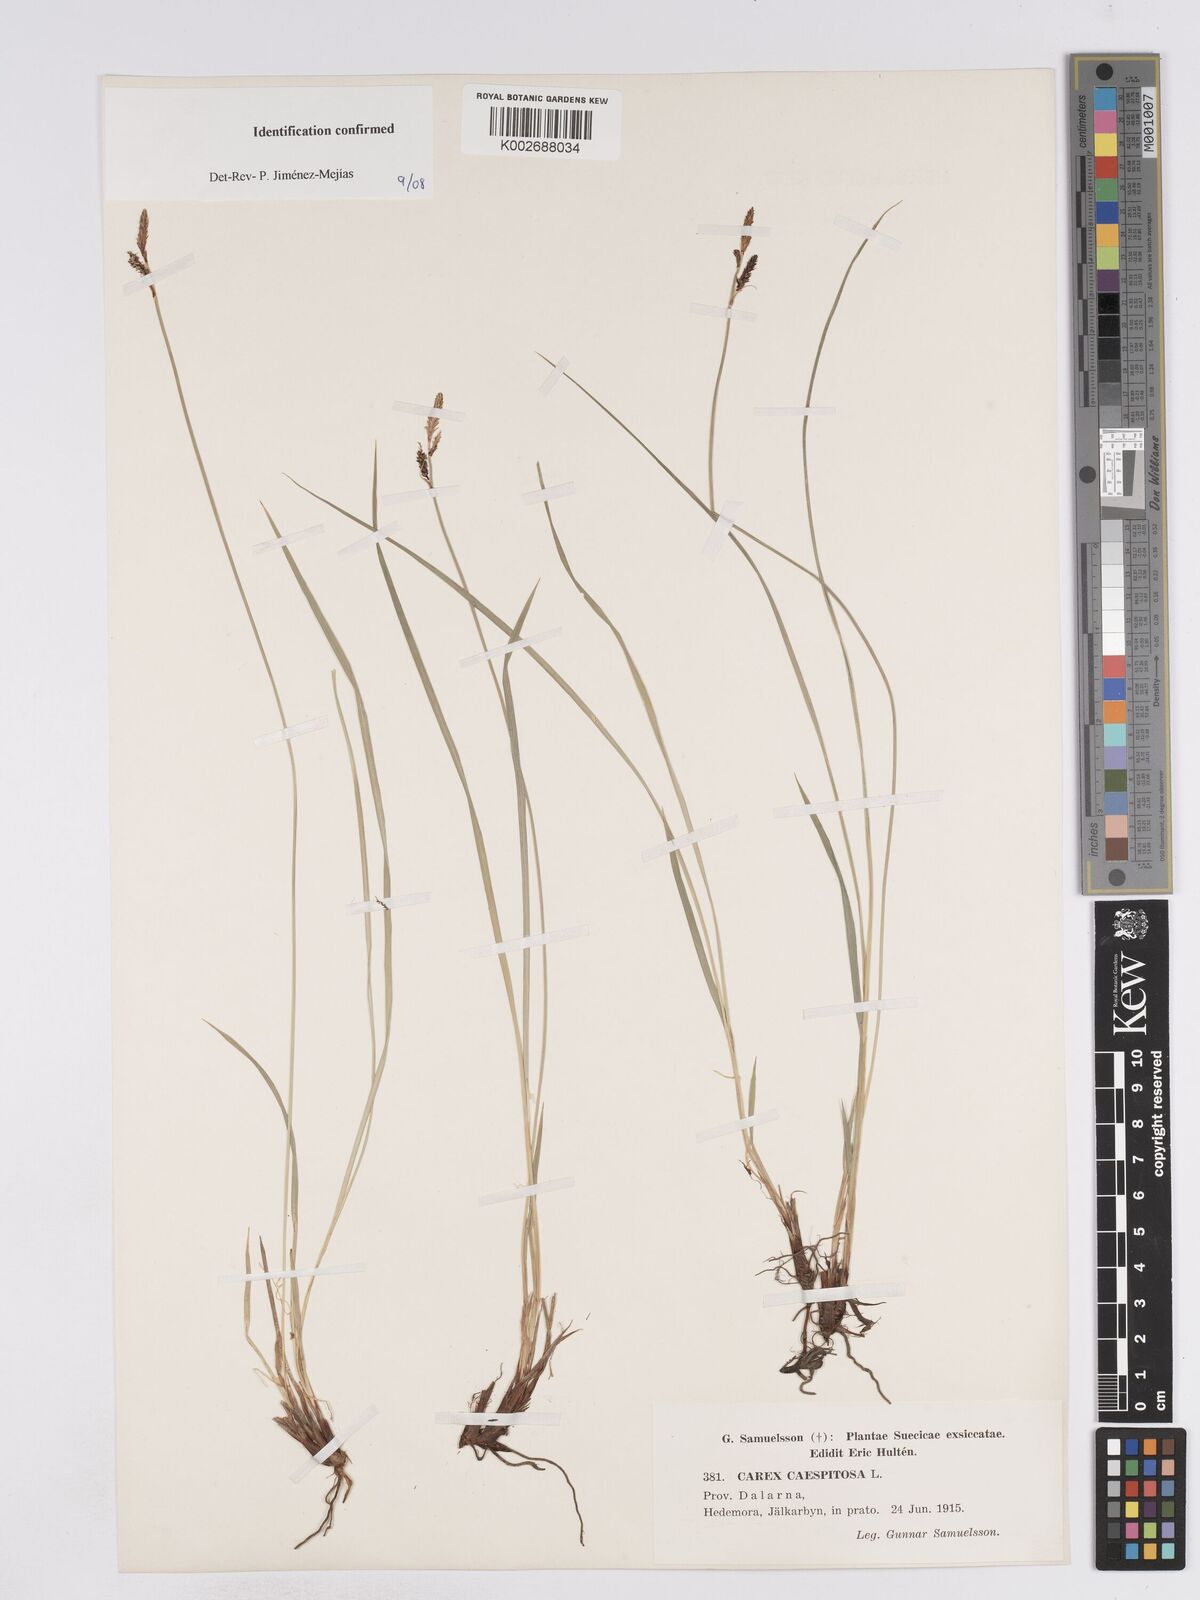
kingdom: Plantae
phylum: Tracheophyta
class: Liliopsida
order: Poales
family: Cyperaceae
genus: Carex
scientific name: Carex
